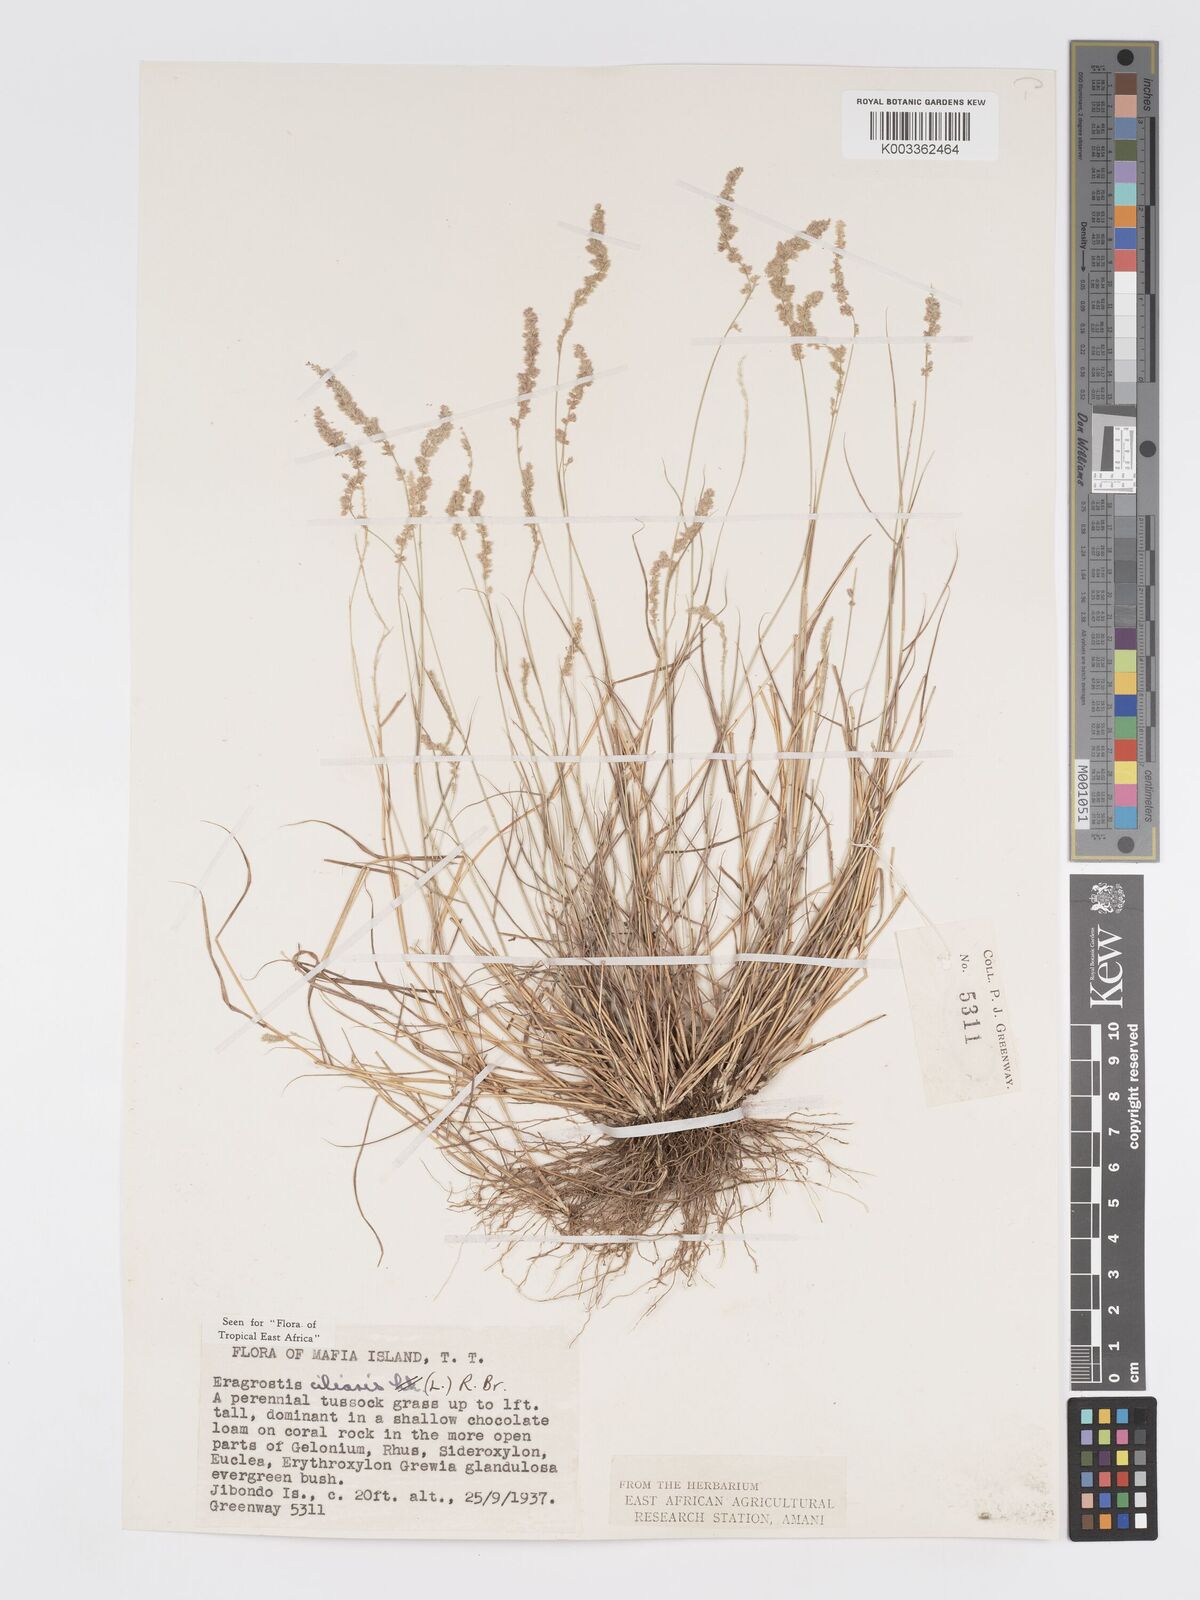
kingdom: Plantae
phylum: Tracheophyta
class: Liliopsida
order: Poales
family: Poaceae
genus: Eragrostis
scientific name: Eragrostis ciliaris
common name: Gophertail lovegrass
